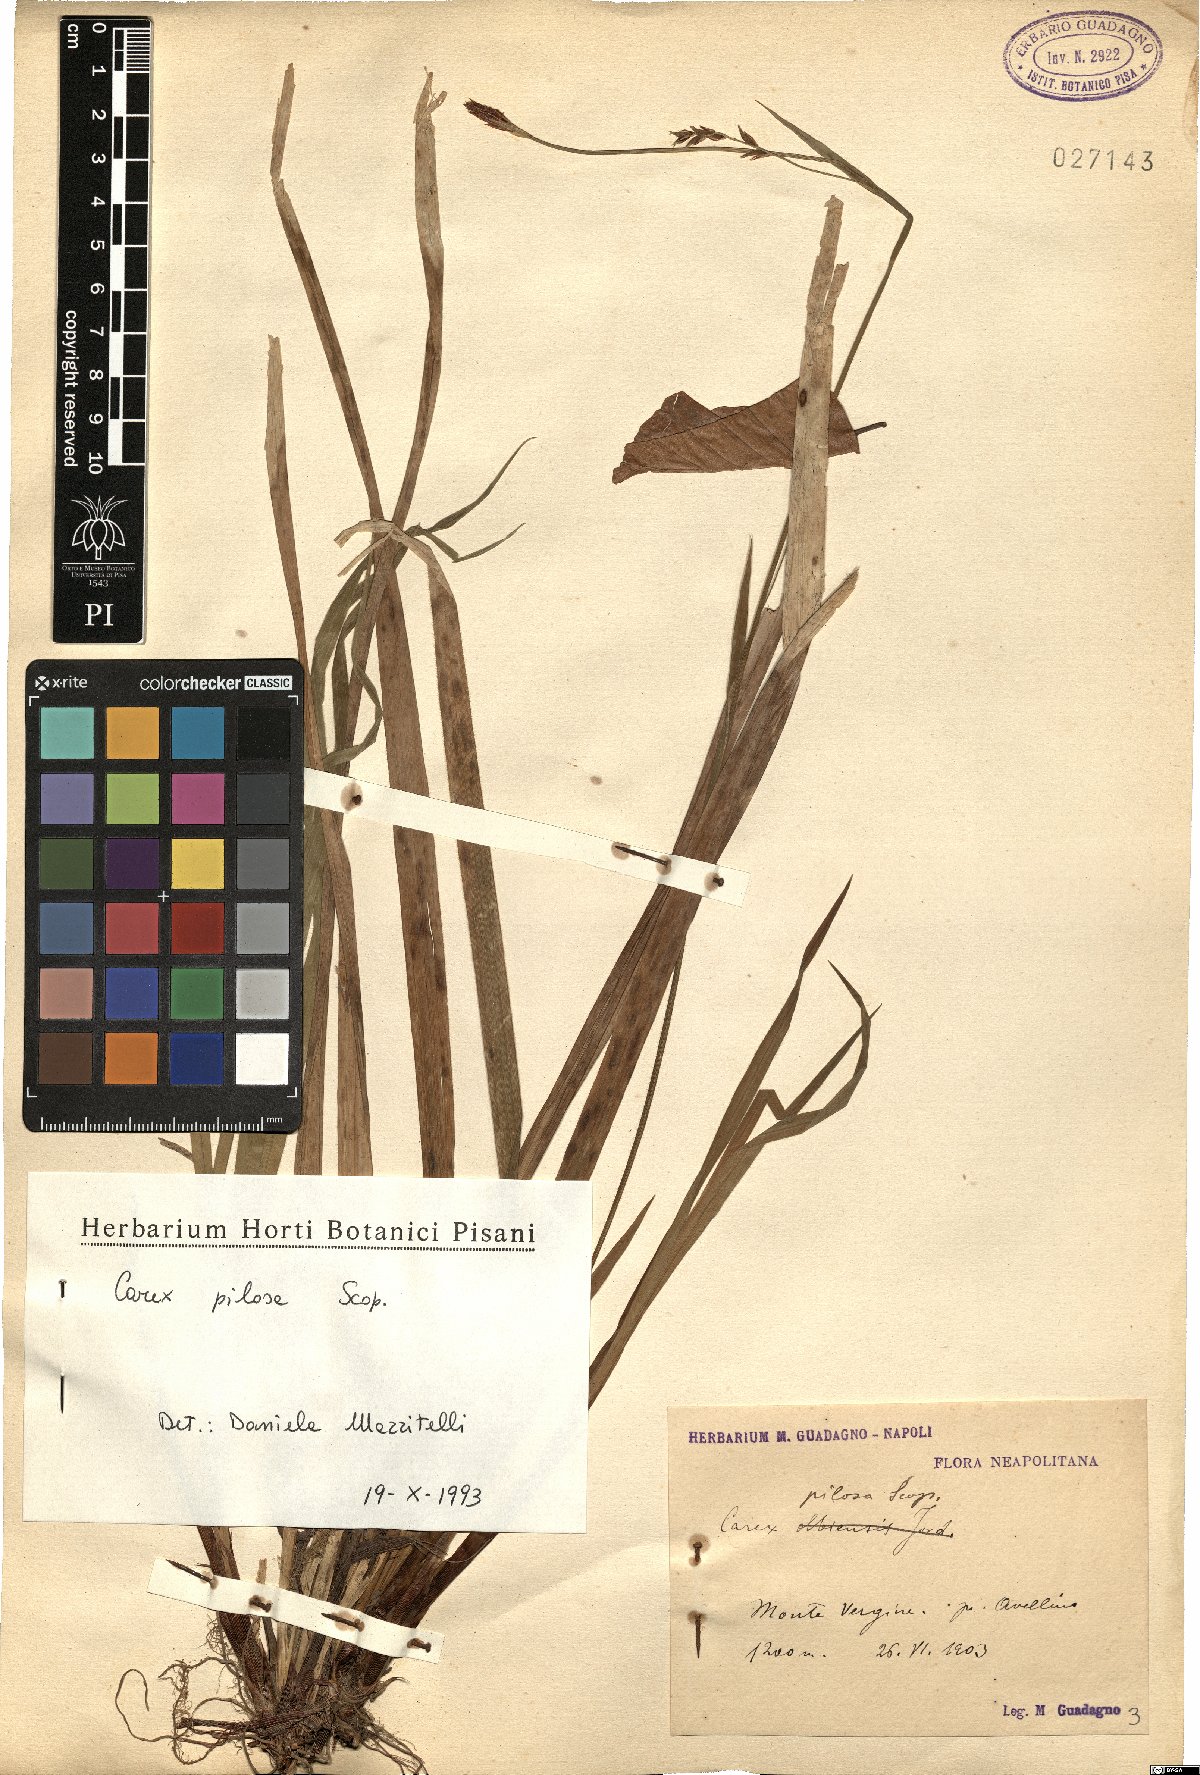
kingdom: Plantae
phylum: Tracheophyta
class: Liliopsida
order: Poales
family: Cyperaceae
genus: Carex
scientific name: Carex pilosa
